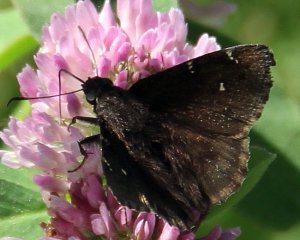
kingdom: Animalia
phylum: Arthropoda
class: Insecta
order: Lepidoptera
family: Hesperiidae
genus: Autochton
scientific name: Autochton
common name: Northern Cloudywing
